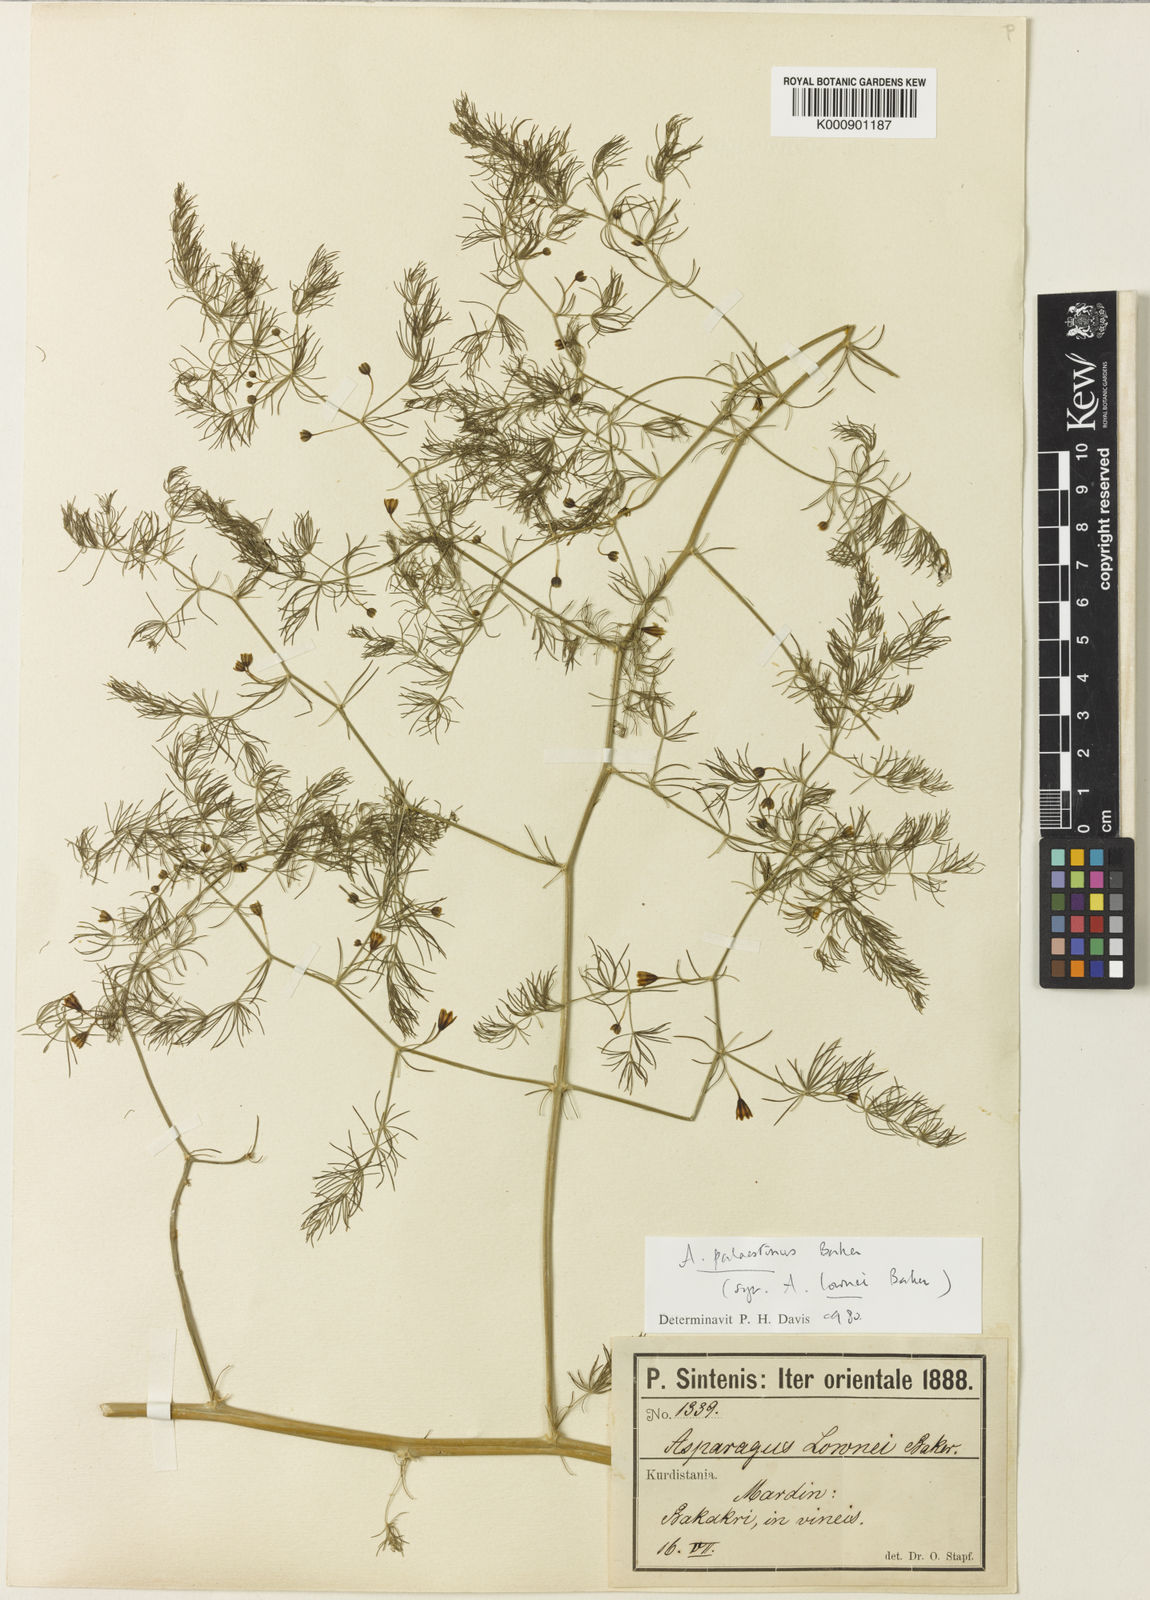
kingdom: Plantae
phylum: Tracheophyta
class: Liliopsida
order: Asparagales
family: Asparagaceae
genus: Asparagus
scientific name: Asparagus palaestinus
